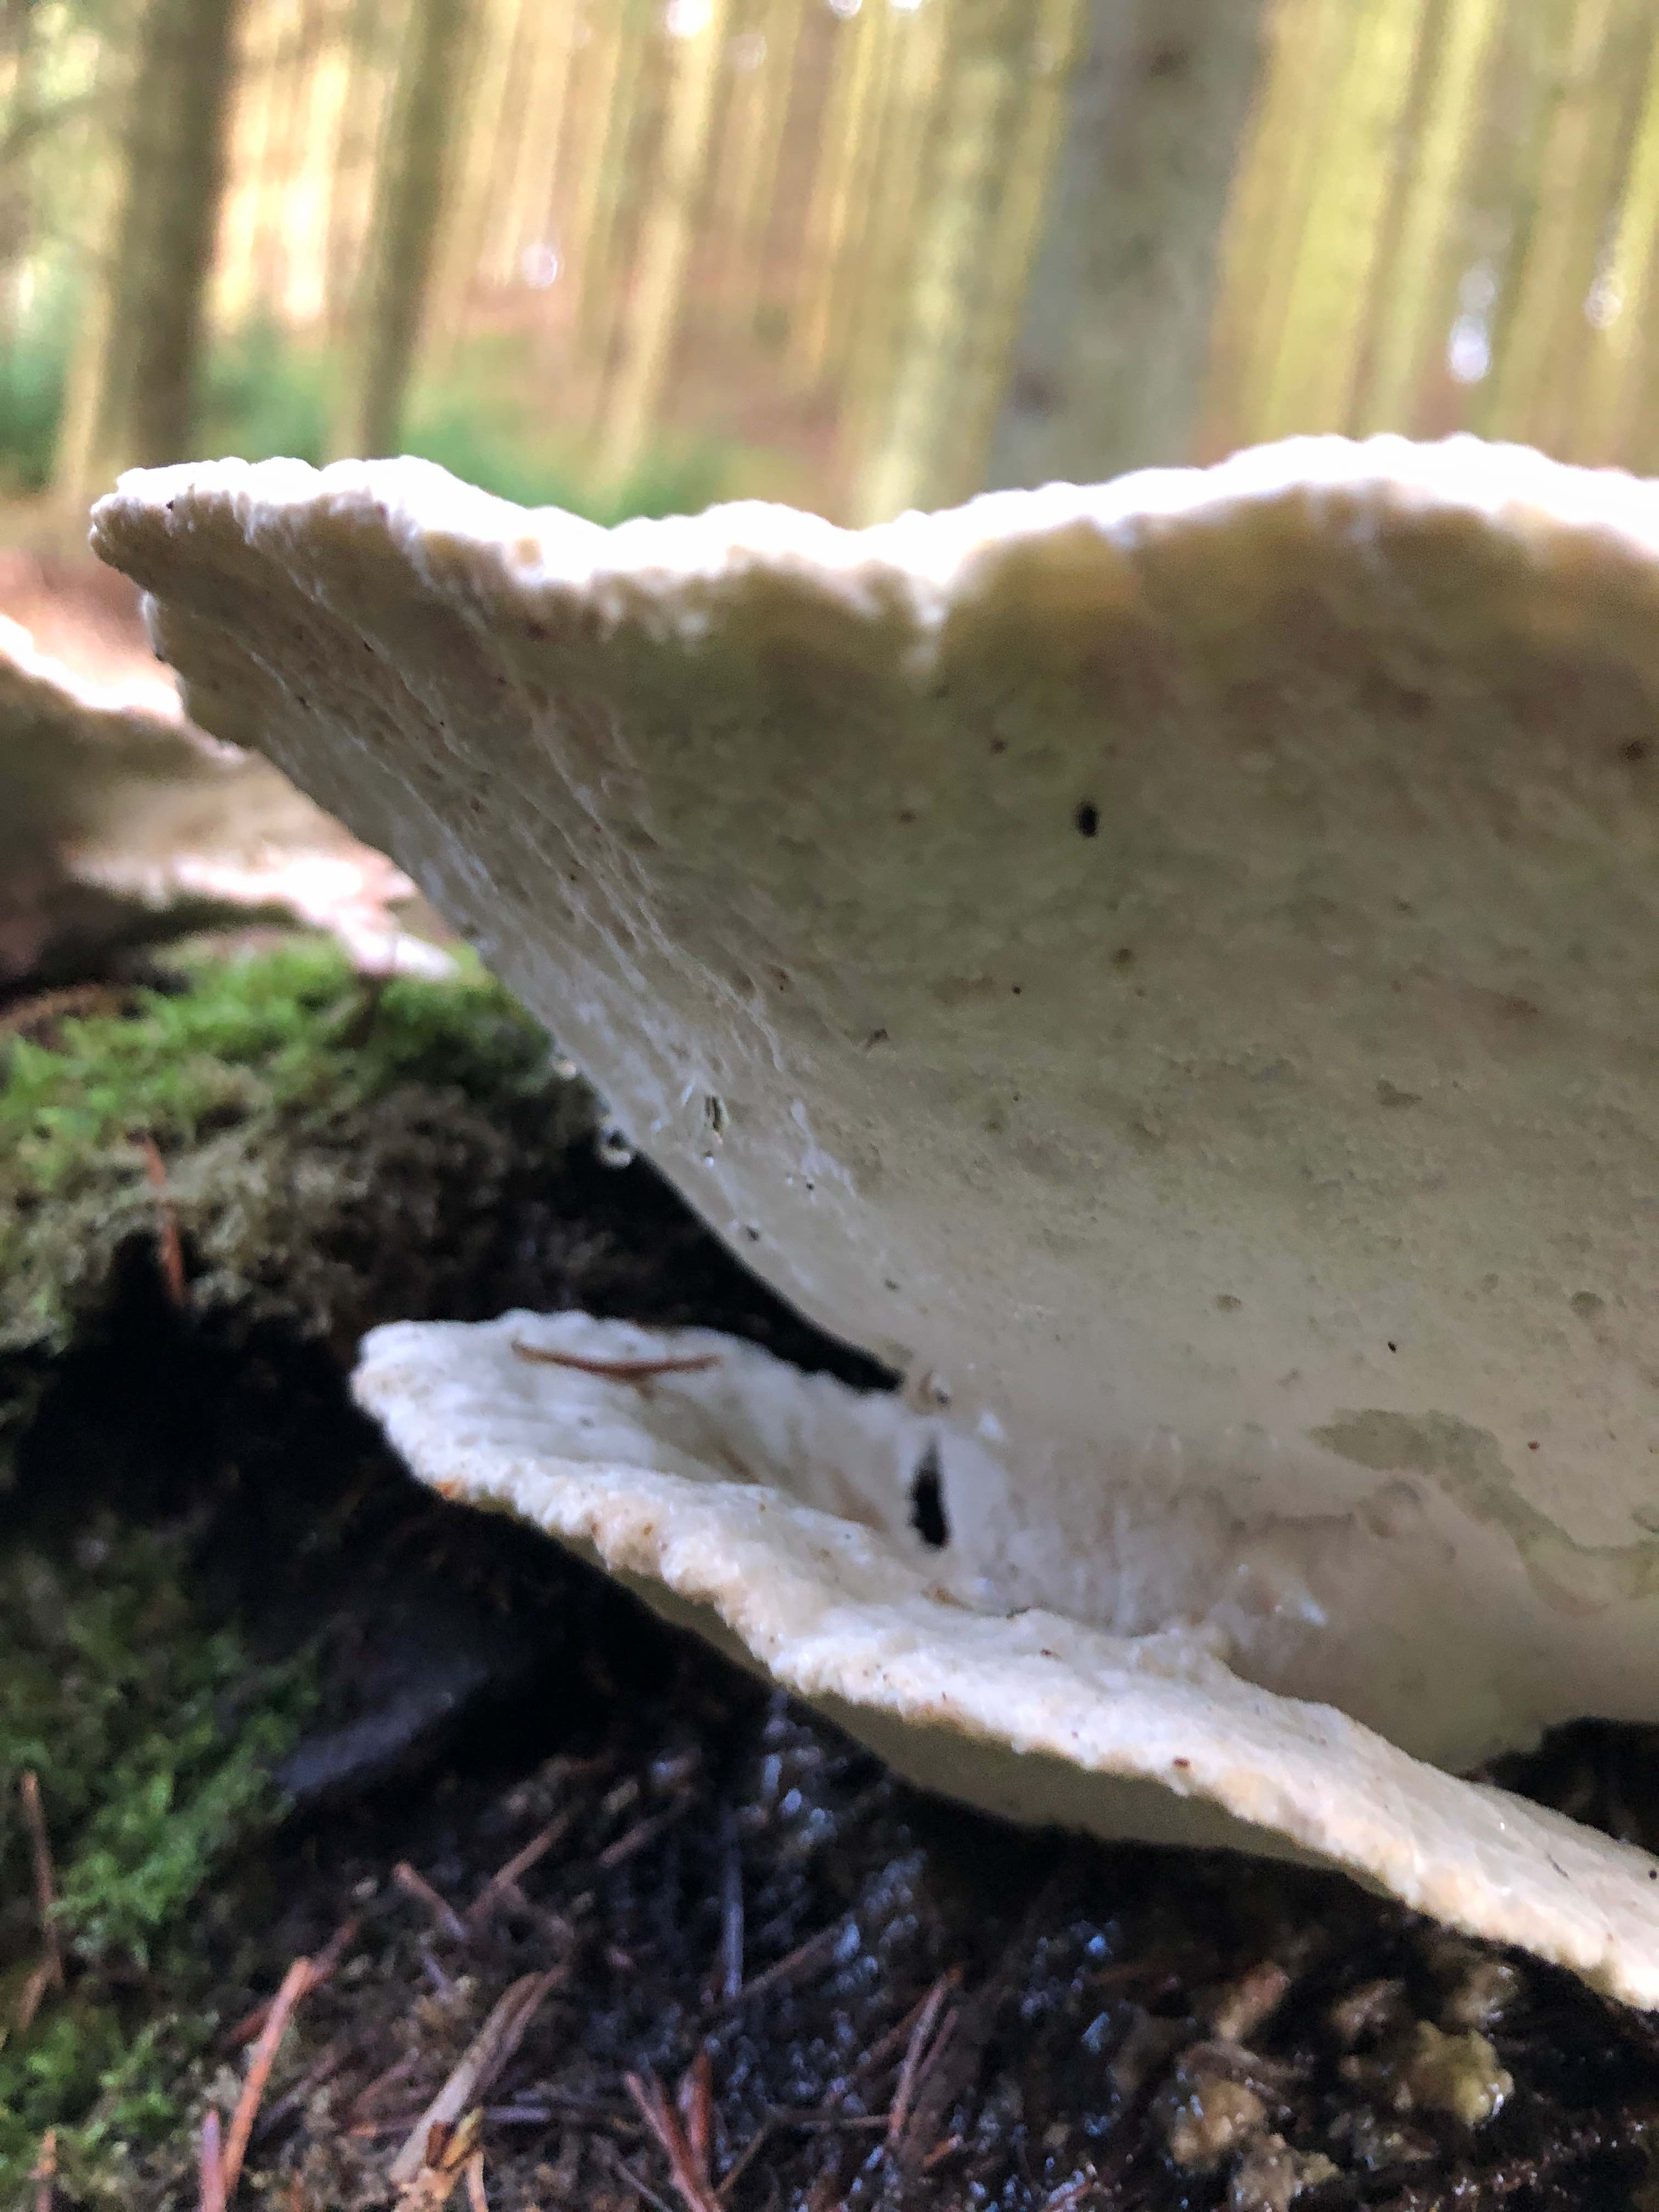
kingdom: Fungi
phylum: Basidiomycota
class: Agaricomycetes
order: Polyporales
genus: Calcipostia
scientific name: Calcipostia guttulata
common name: dråbe-kødporesvamp
